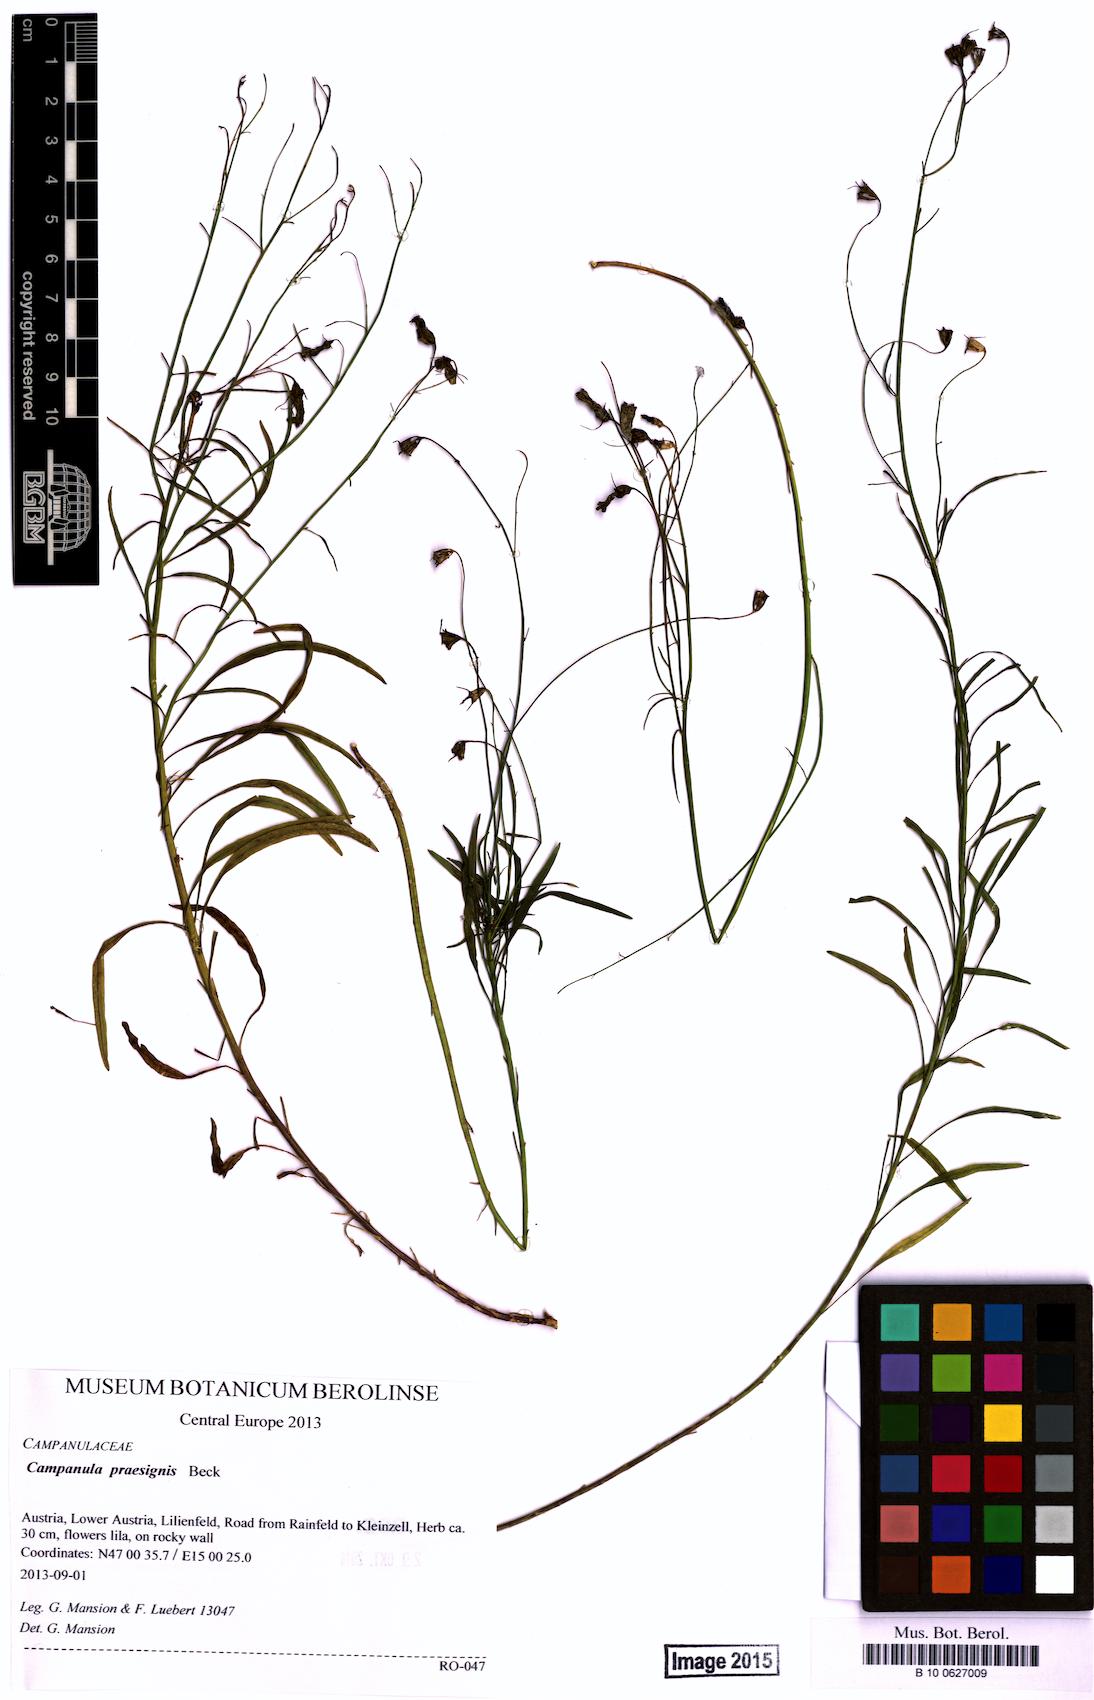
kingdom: Plantae
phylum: Tracheophyta
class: Magnoliopsida
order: Asterales
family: Campanulaceae
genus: Campanula
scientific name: Campanula praesignis
